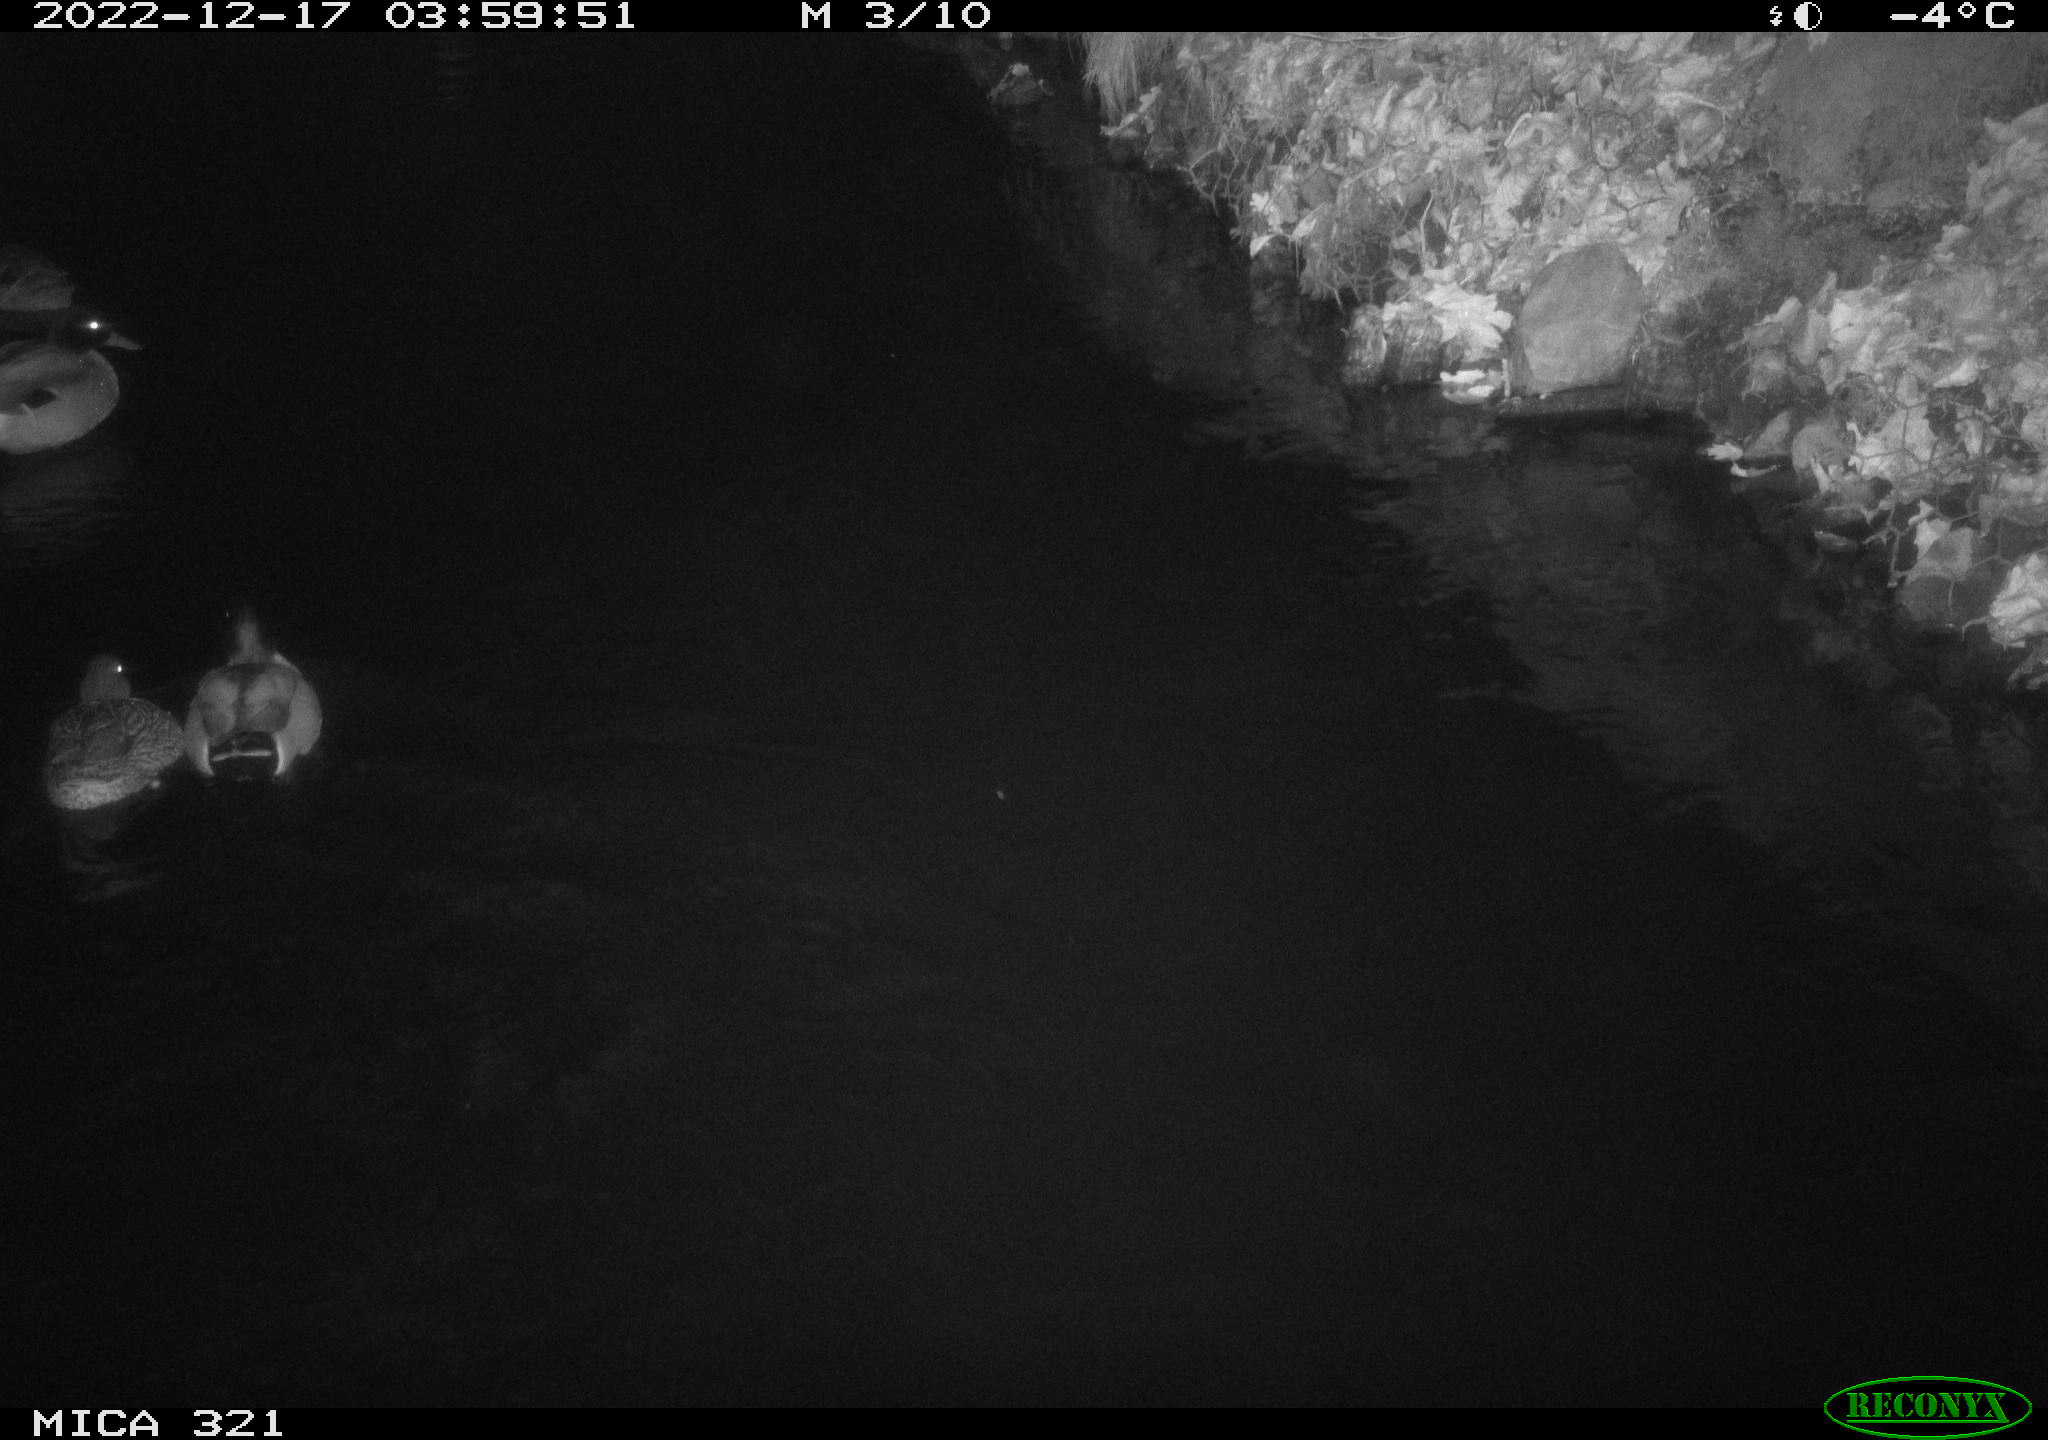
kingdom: Animalia
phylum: Chordata
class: Mammalia
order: Rodentia
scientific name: Rodentia
